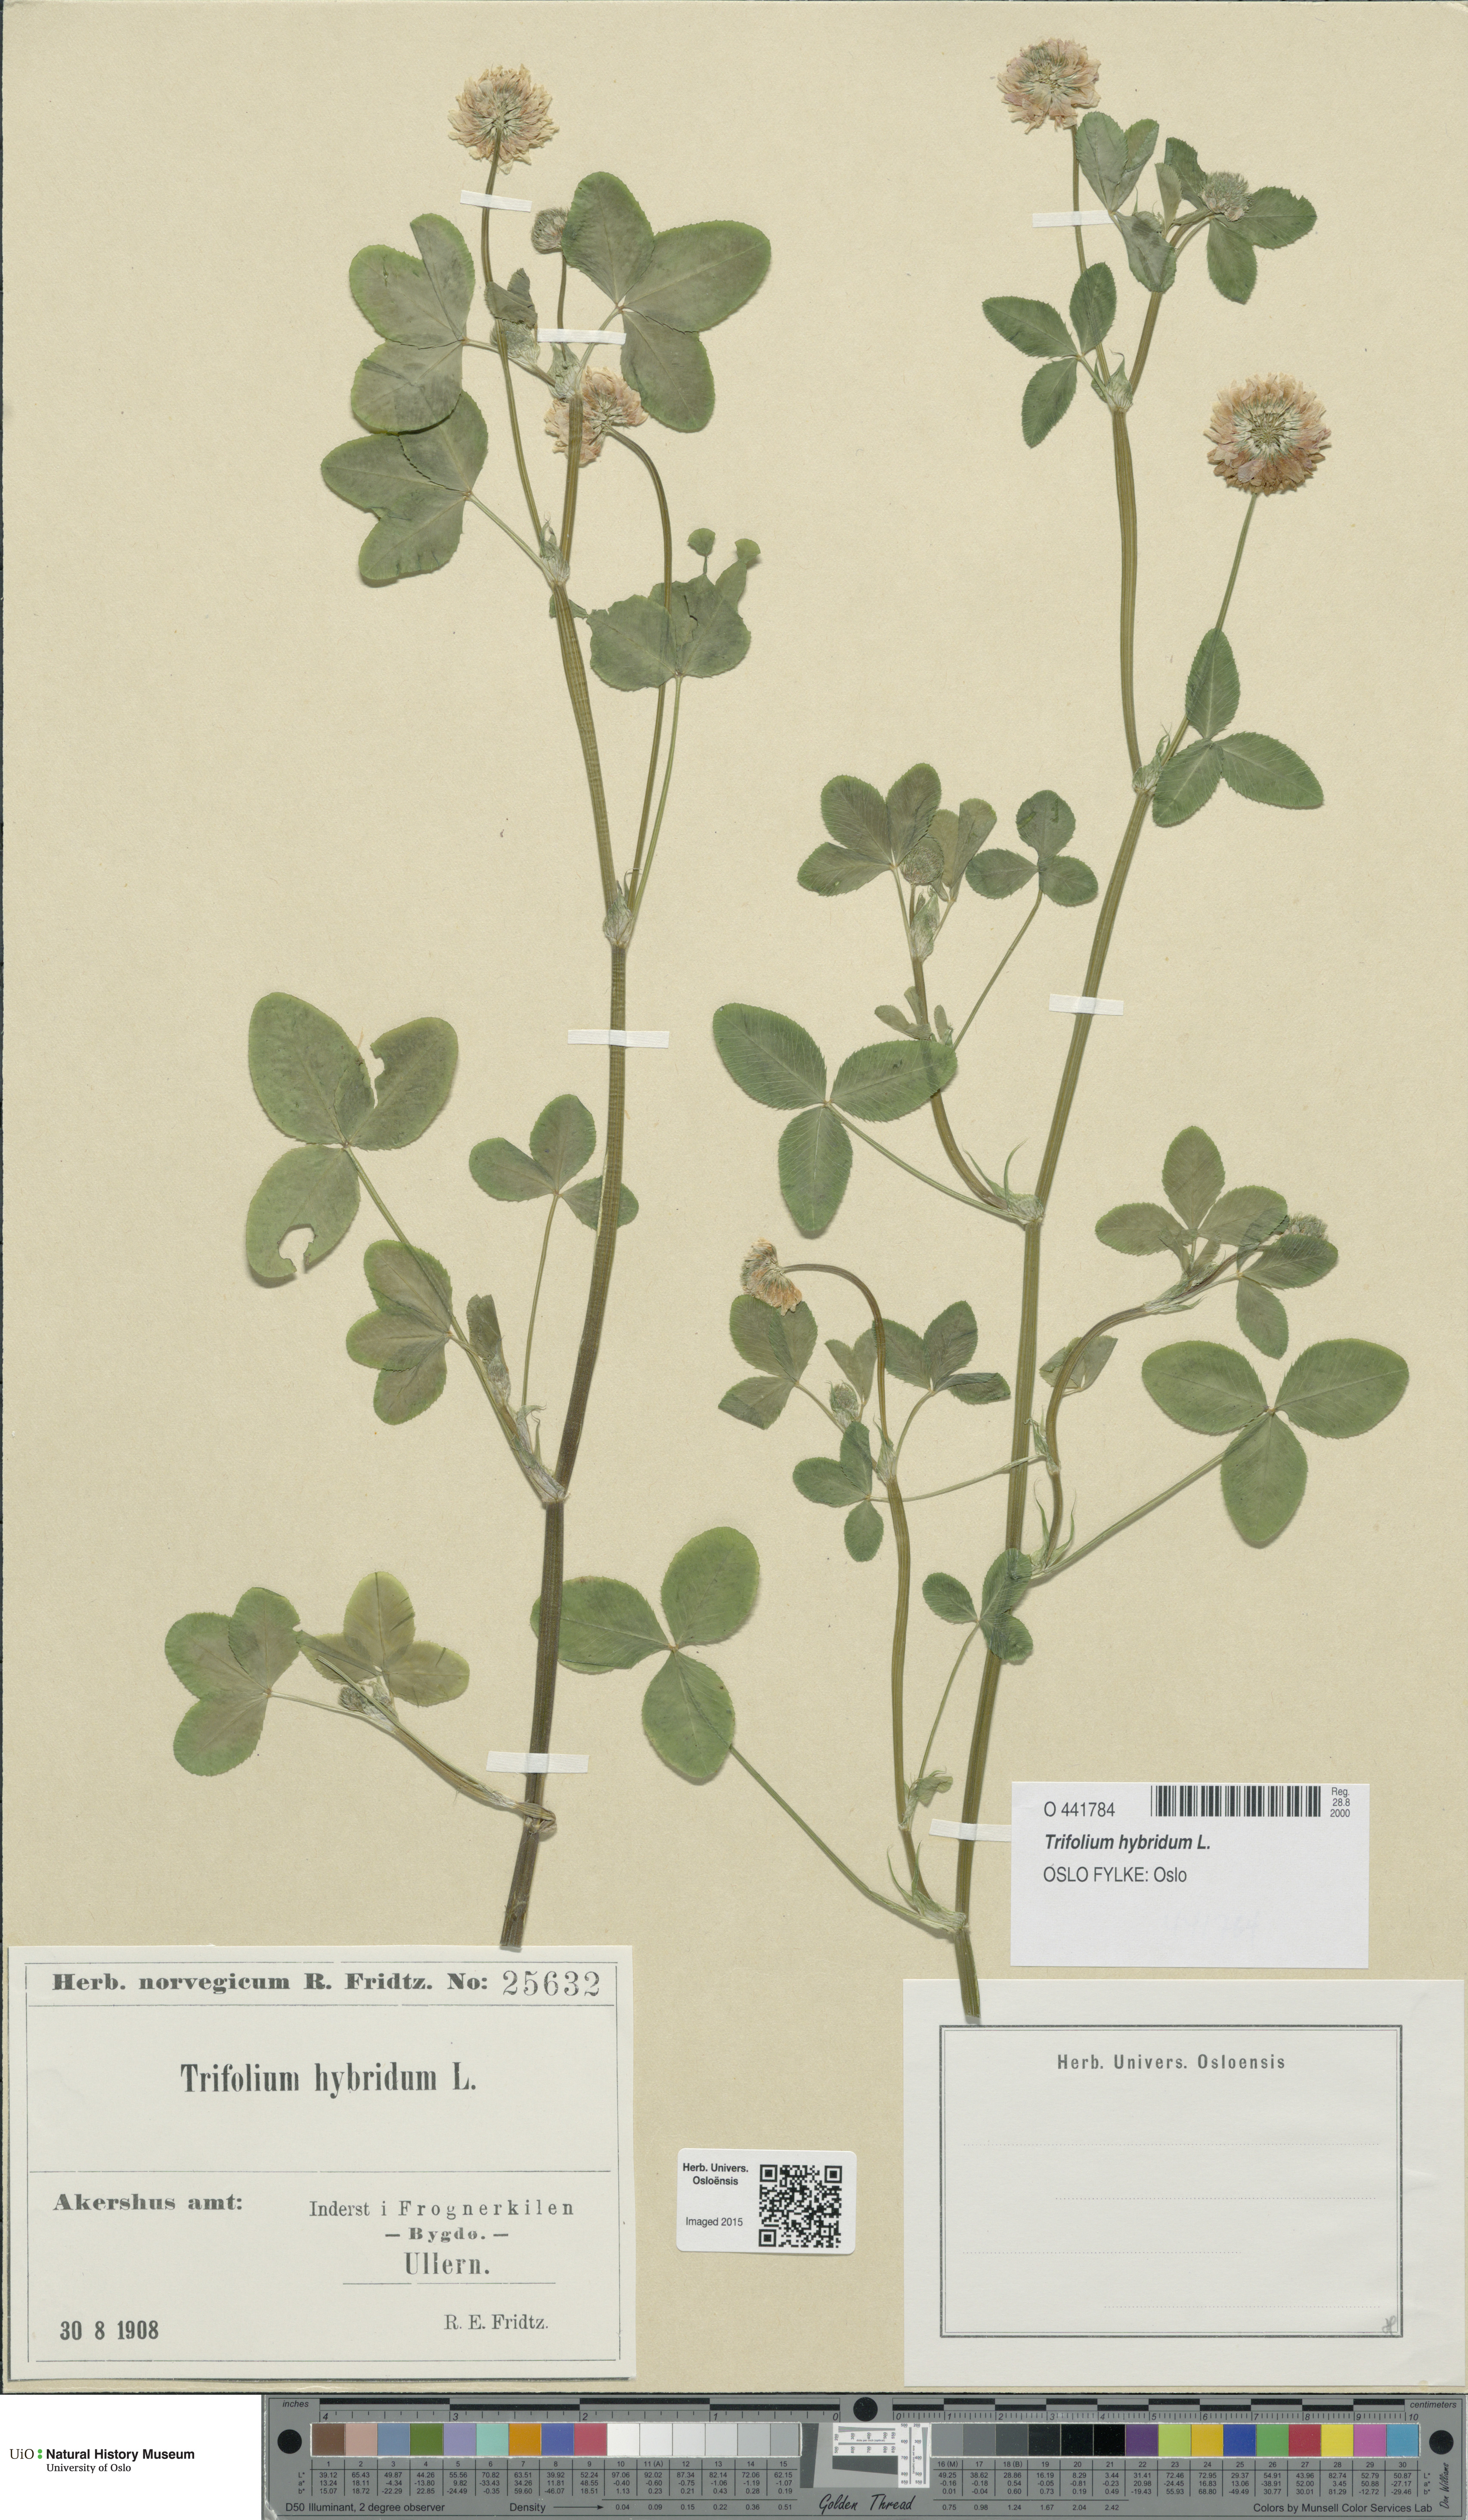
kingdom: Plantae
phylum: Tracheophyta
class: Magnoliopsida
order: Fabales
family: Fabaceae
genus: Trifolium
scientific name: Trifolium hybridum
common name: Alsike clover
